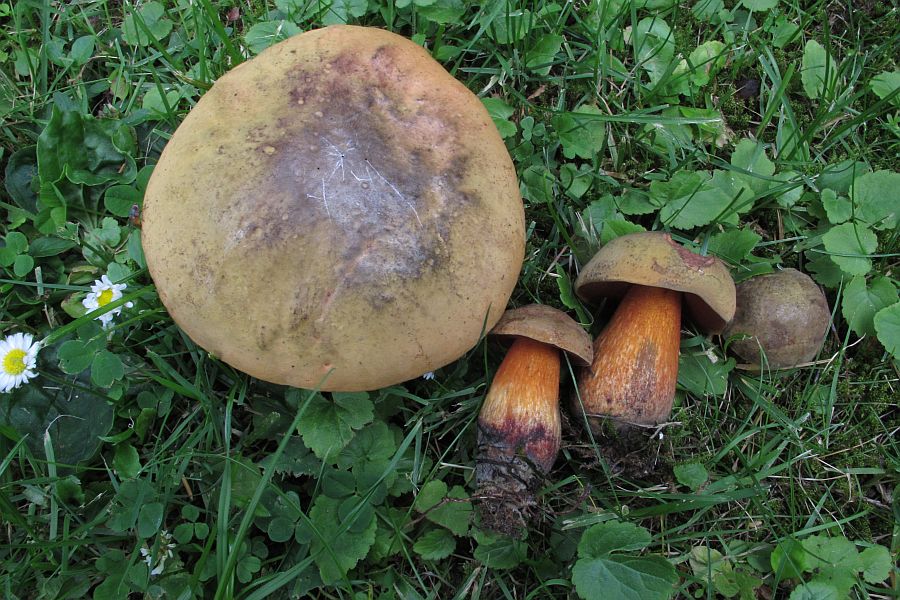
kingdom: Fungi
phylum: Basidiomycota
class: Agaricomycetes
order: Boletales
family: Boletaceae
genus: Suillellus
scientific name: Suillellus luridus
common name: netstokket indigorørhat
